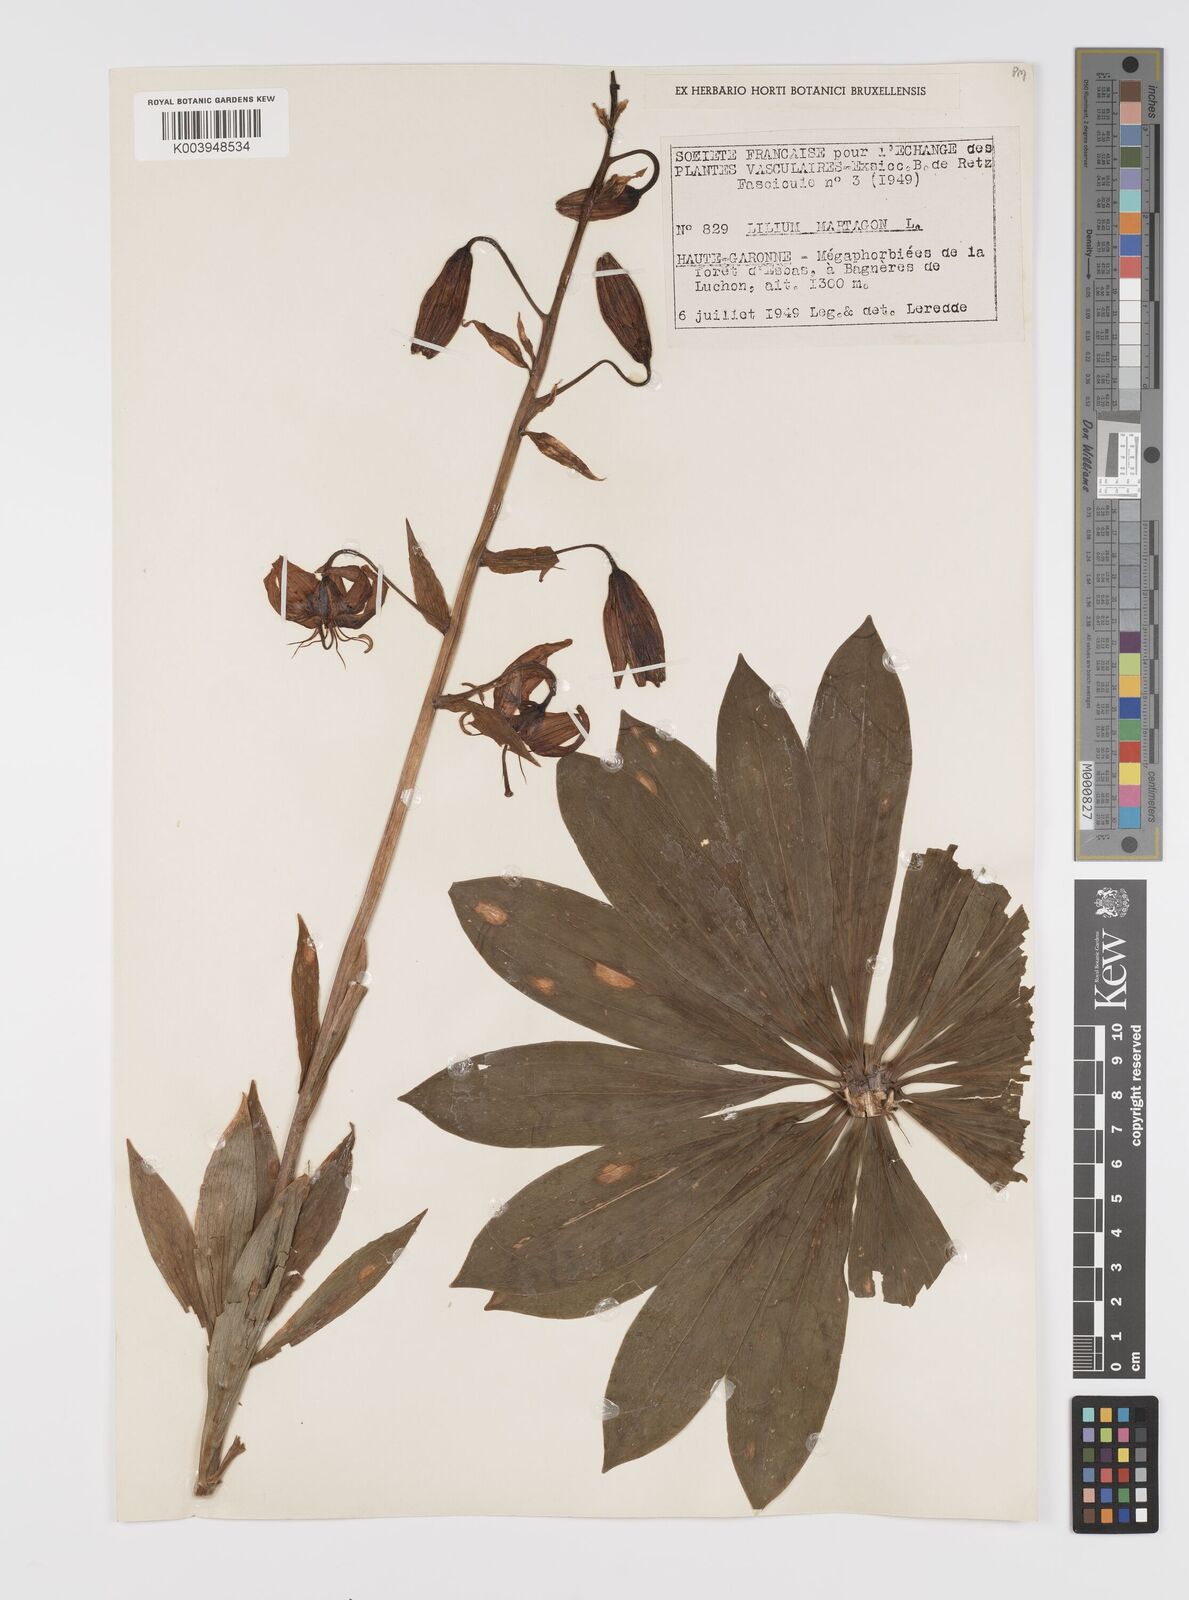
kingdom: Plantae
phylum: Tracheophyta
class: Liliopsida
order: Liliales
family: Liliaceae
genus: Lilium
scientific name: Lilium martagon
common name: Martagon lily
